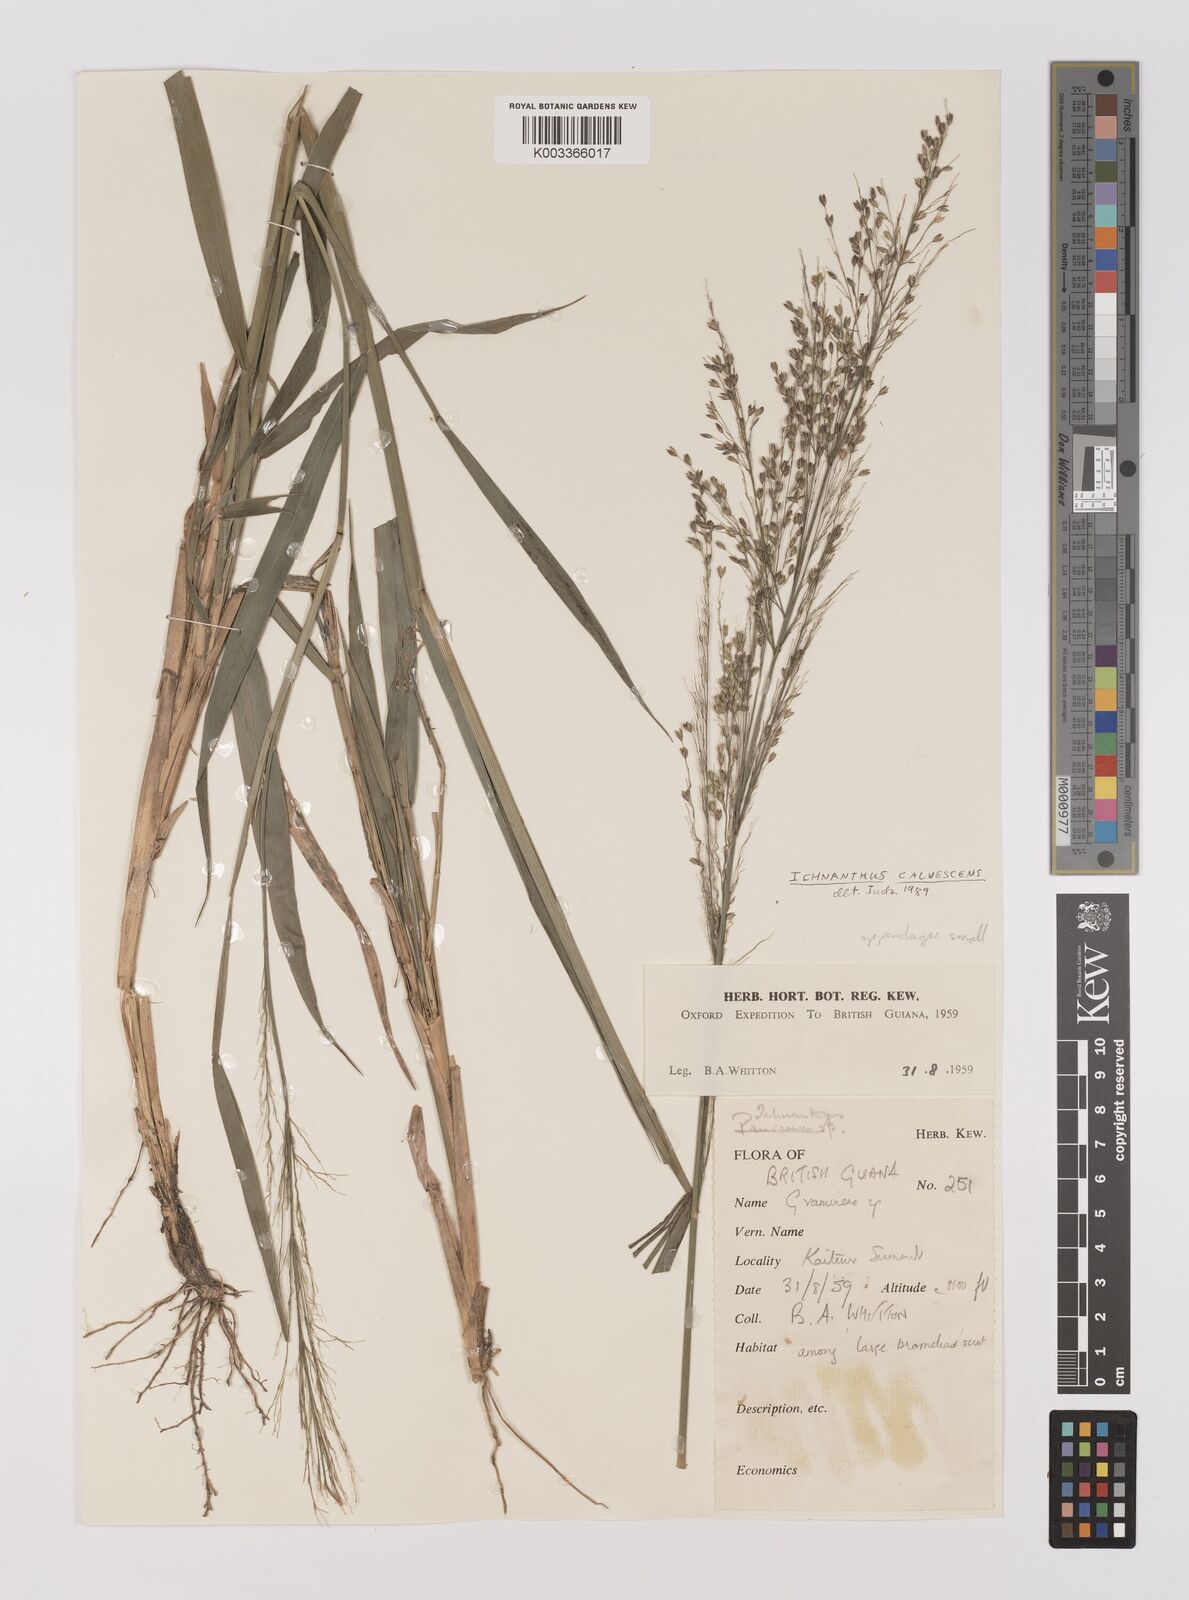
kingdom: Plantae
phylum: Tracheophyta
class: Liliopsida
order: Poales
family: Poaceae
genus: Ichnanthus
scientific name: Ichnanthus calvescens
